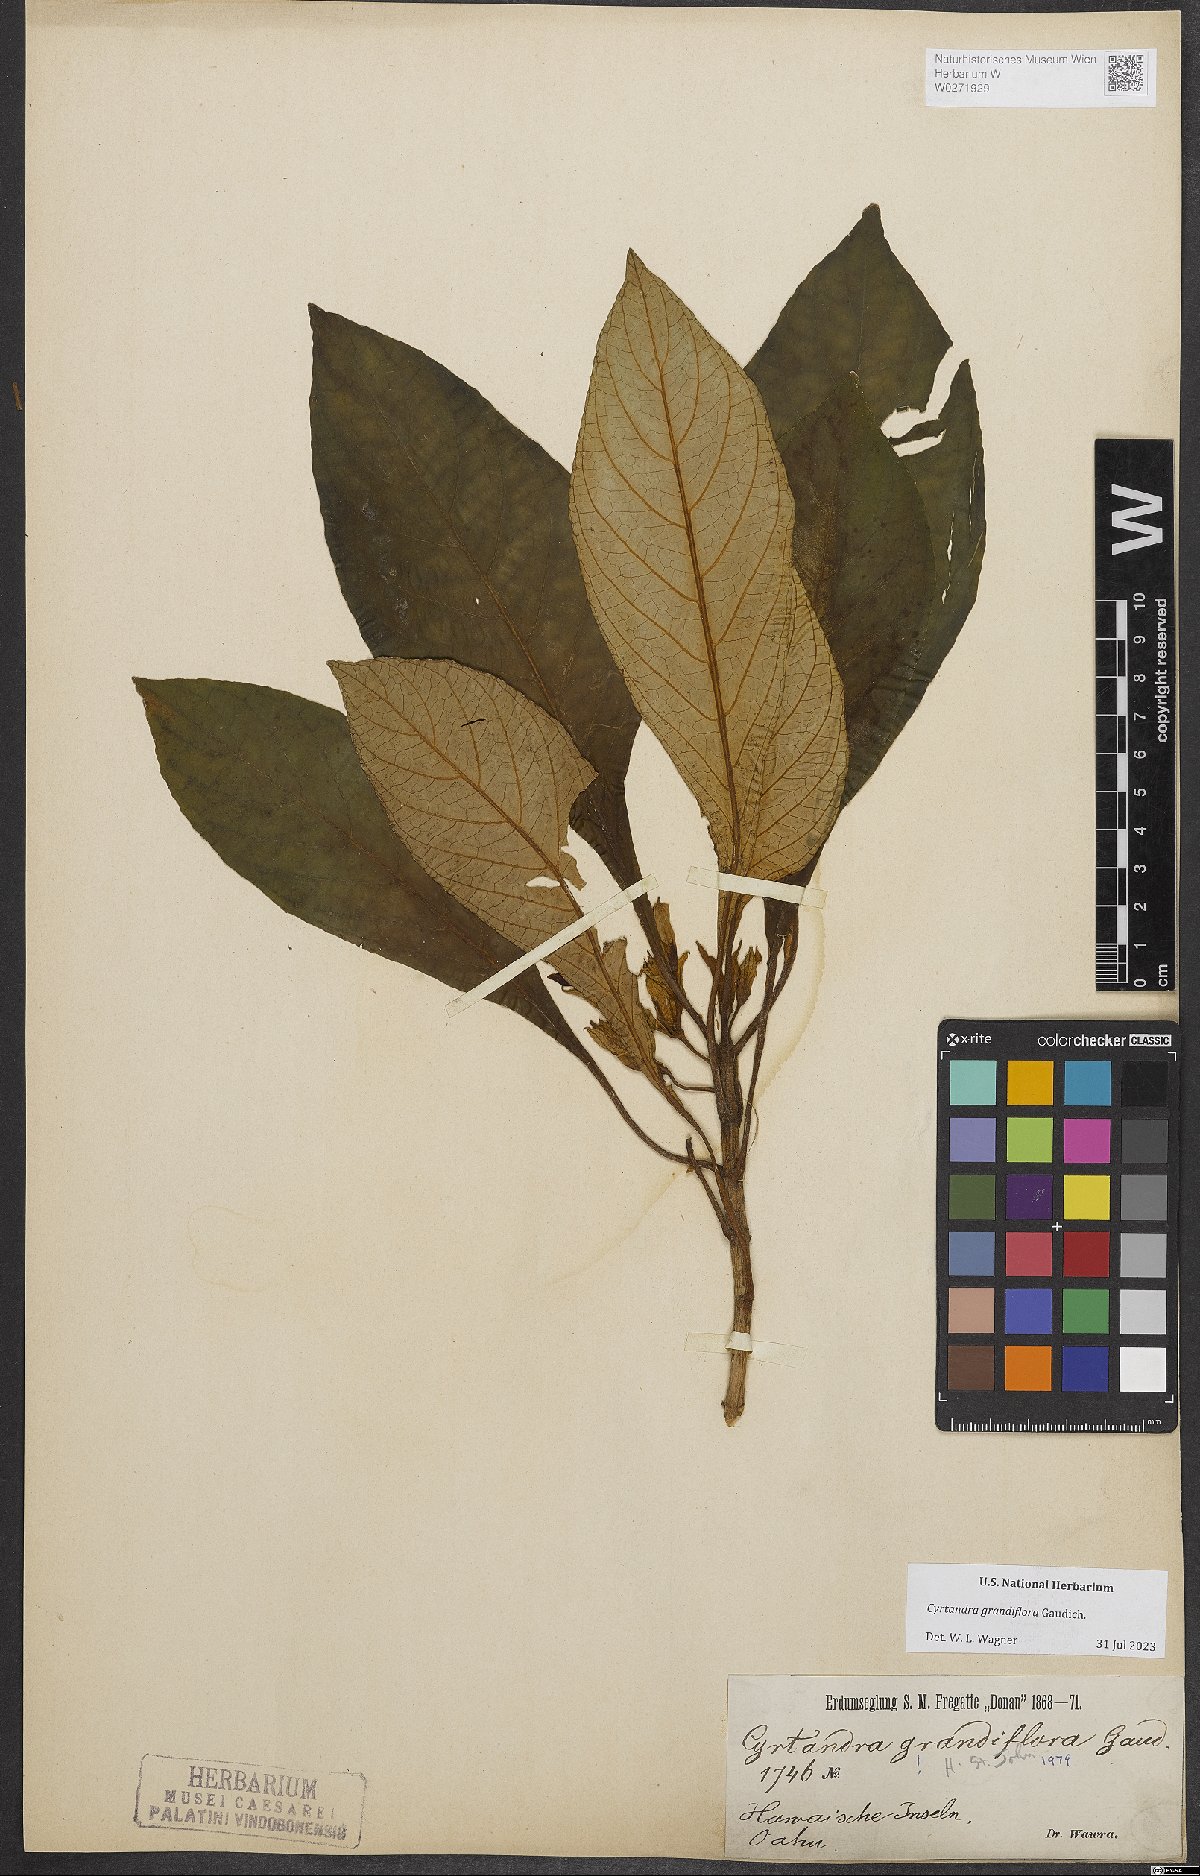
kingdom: Plantae
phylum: Tracheophyta
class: Magnoliopsida
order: Lamiales
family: Gesneriaceae
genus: Cyrtandra
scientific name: Cyrtandra grandiflora
